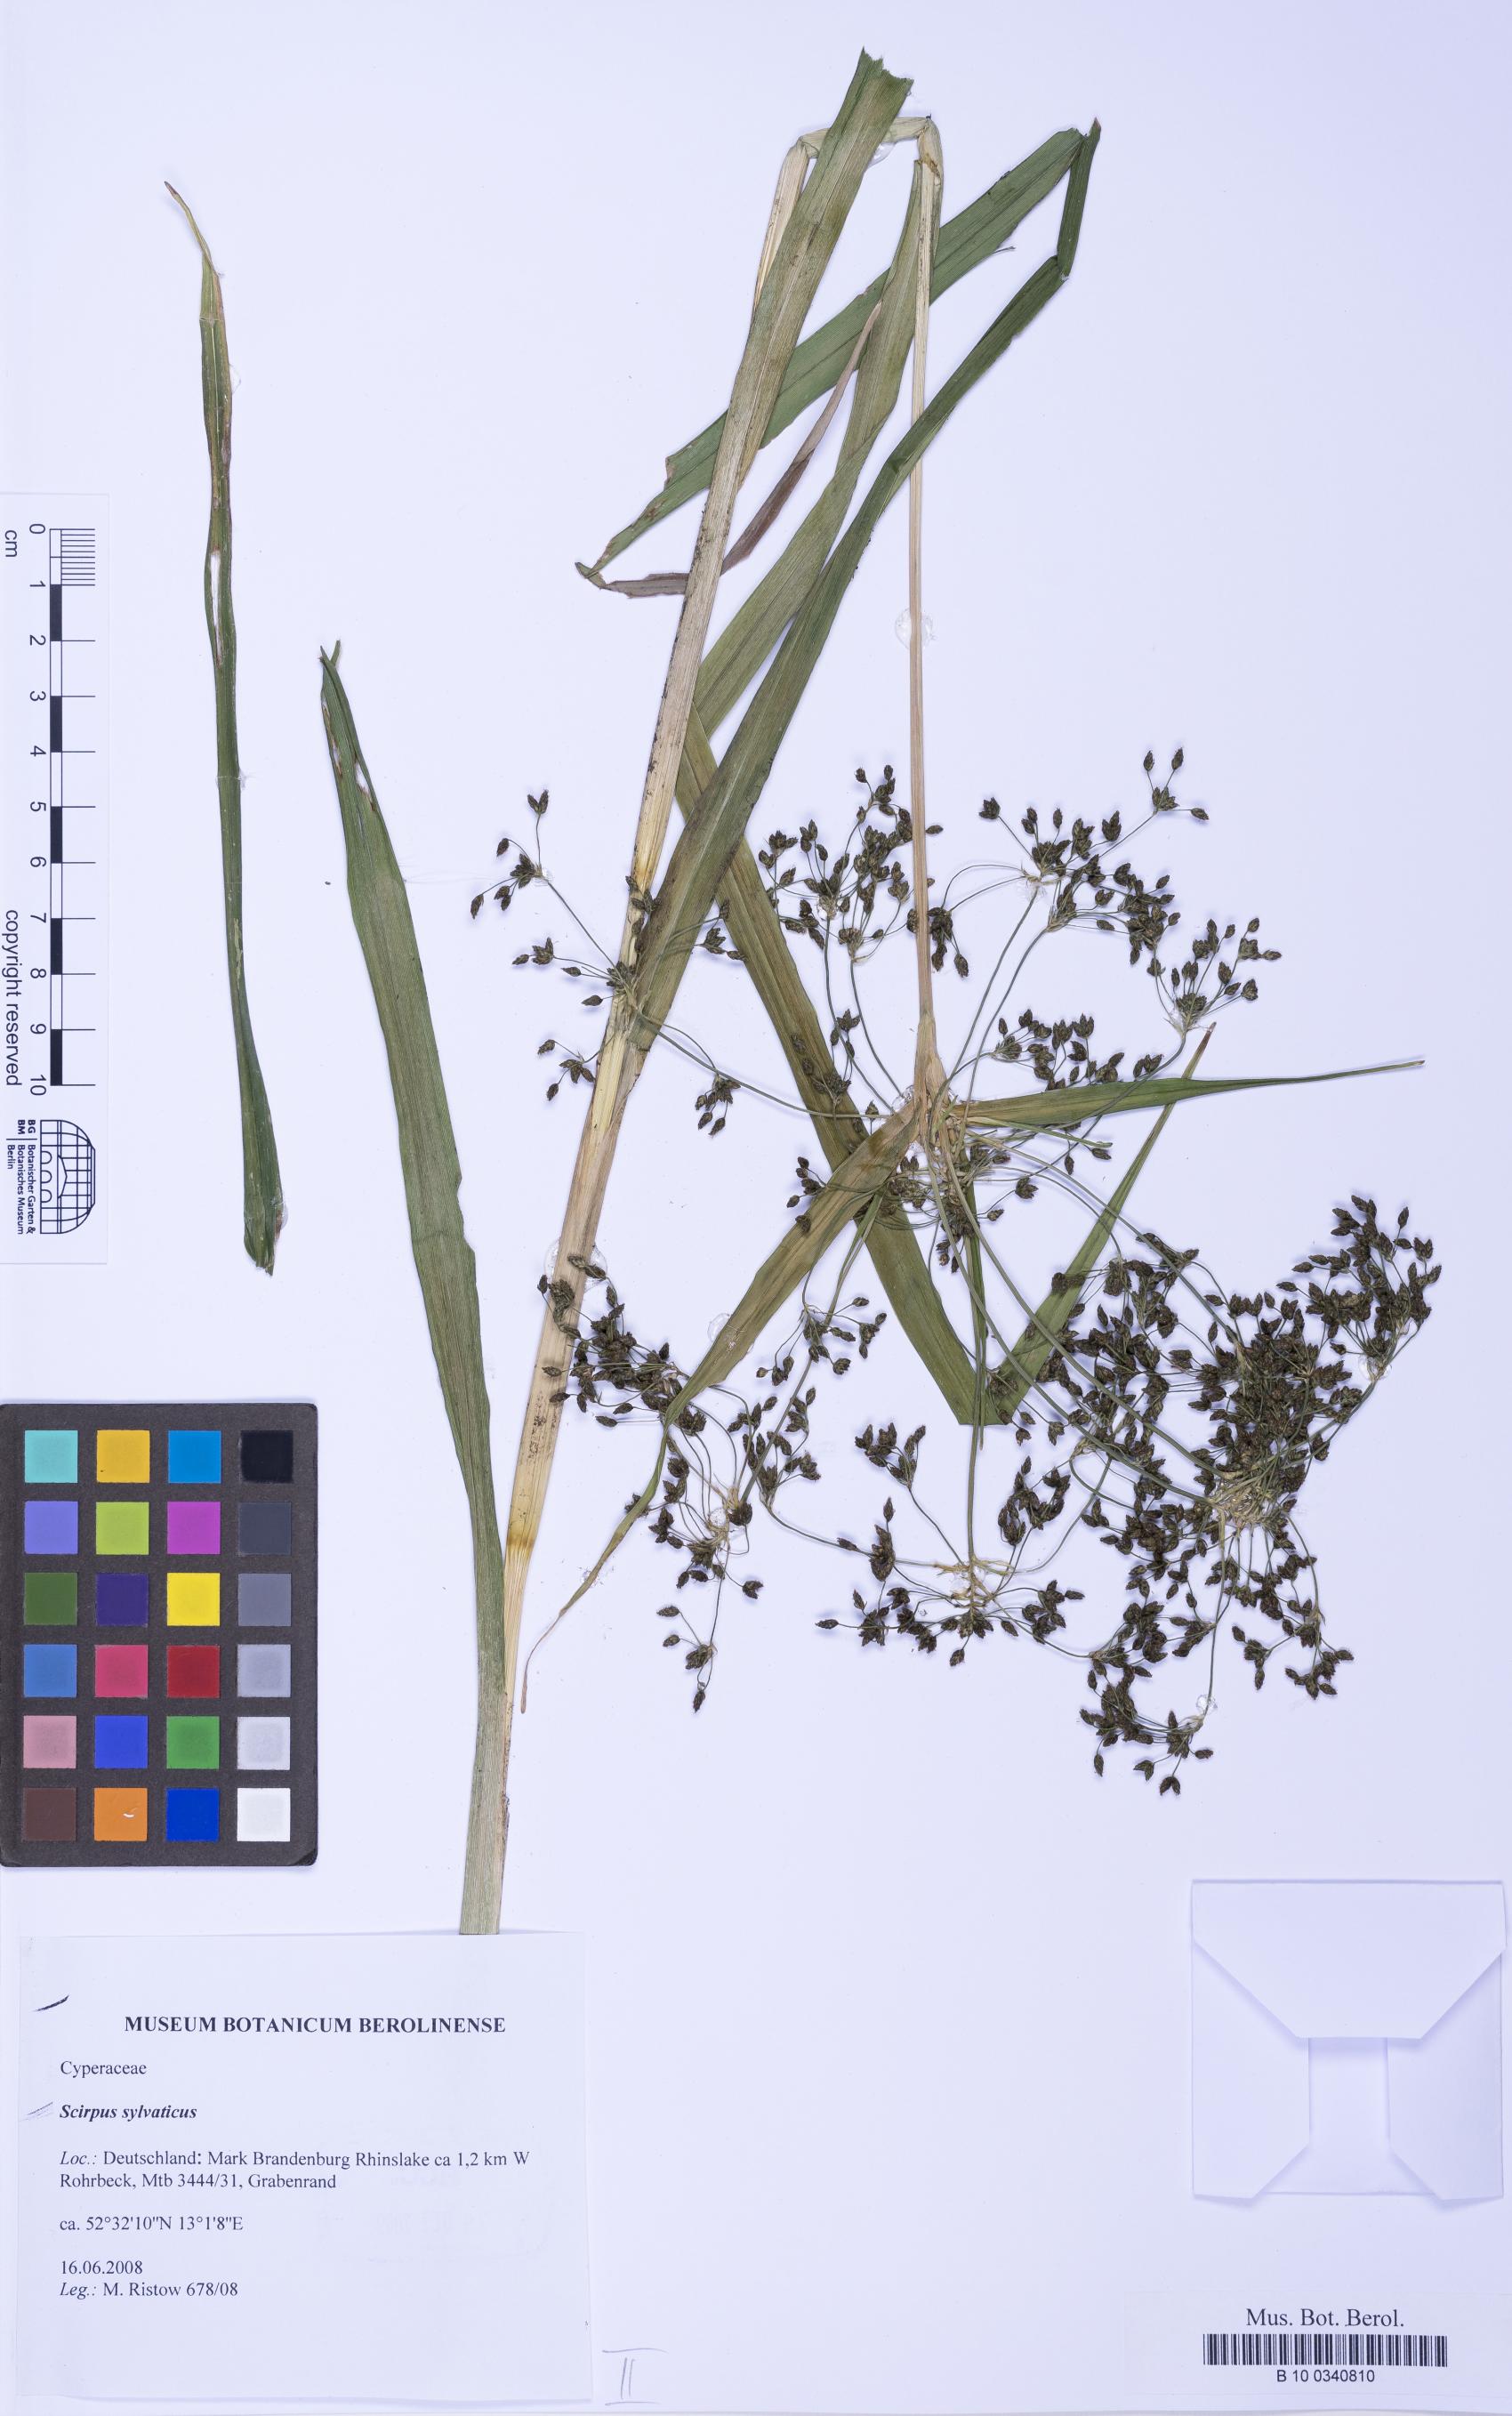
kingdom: Plantae
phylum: Tracheophyta
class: Liliopsida
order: Poales
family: Cyperaceae
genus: Scirpus
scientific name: Scirpus sylvaticus
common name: Wood club-rush
